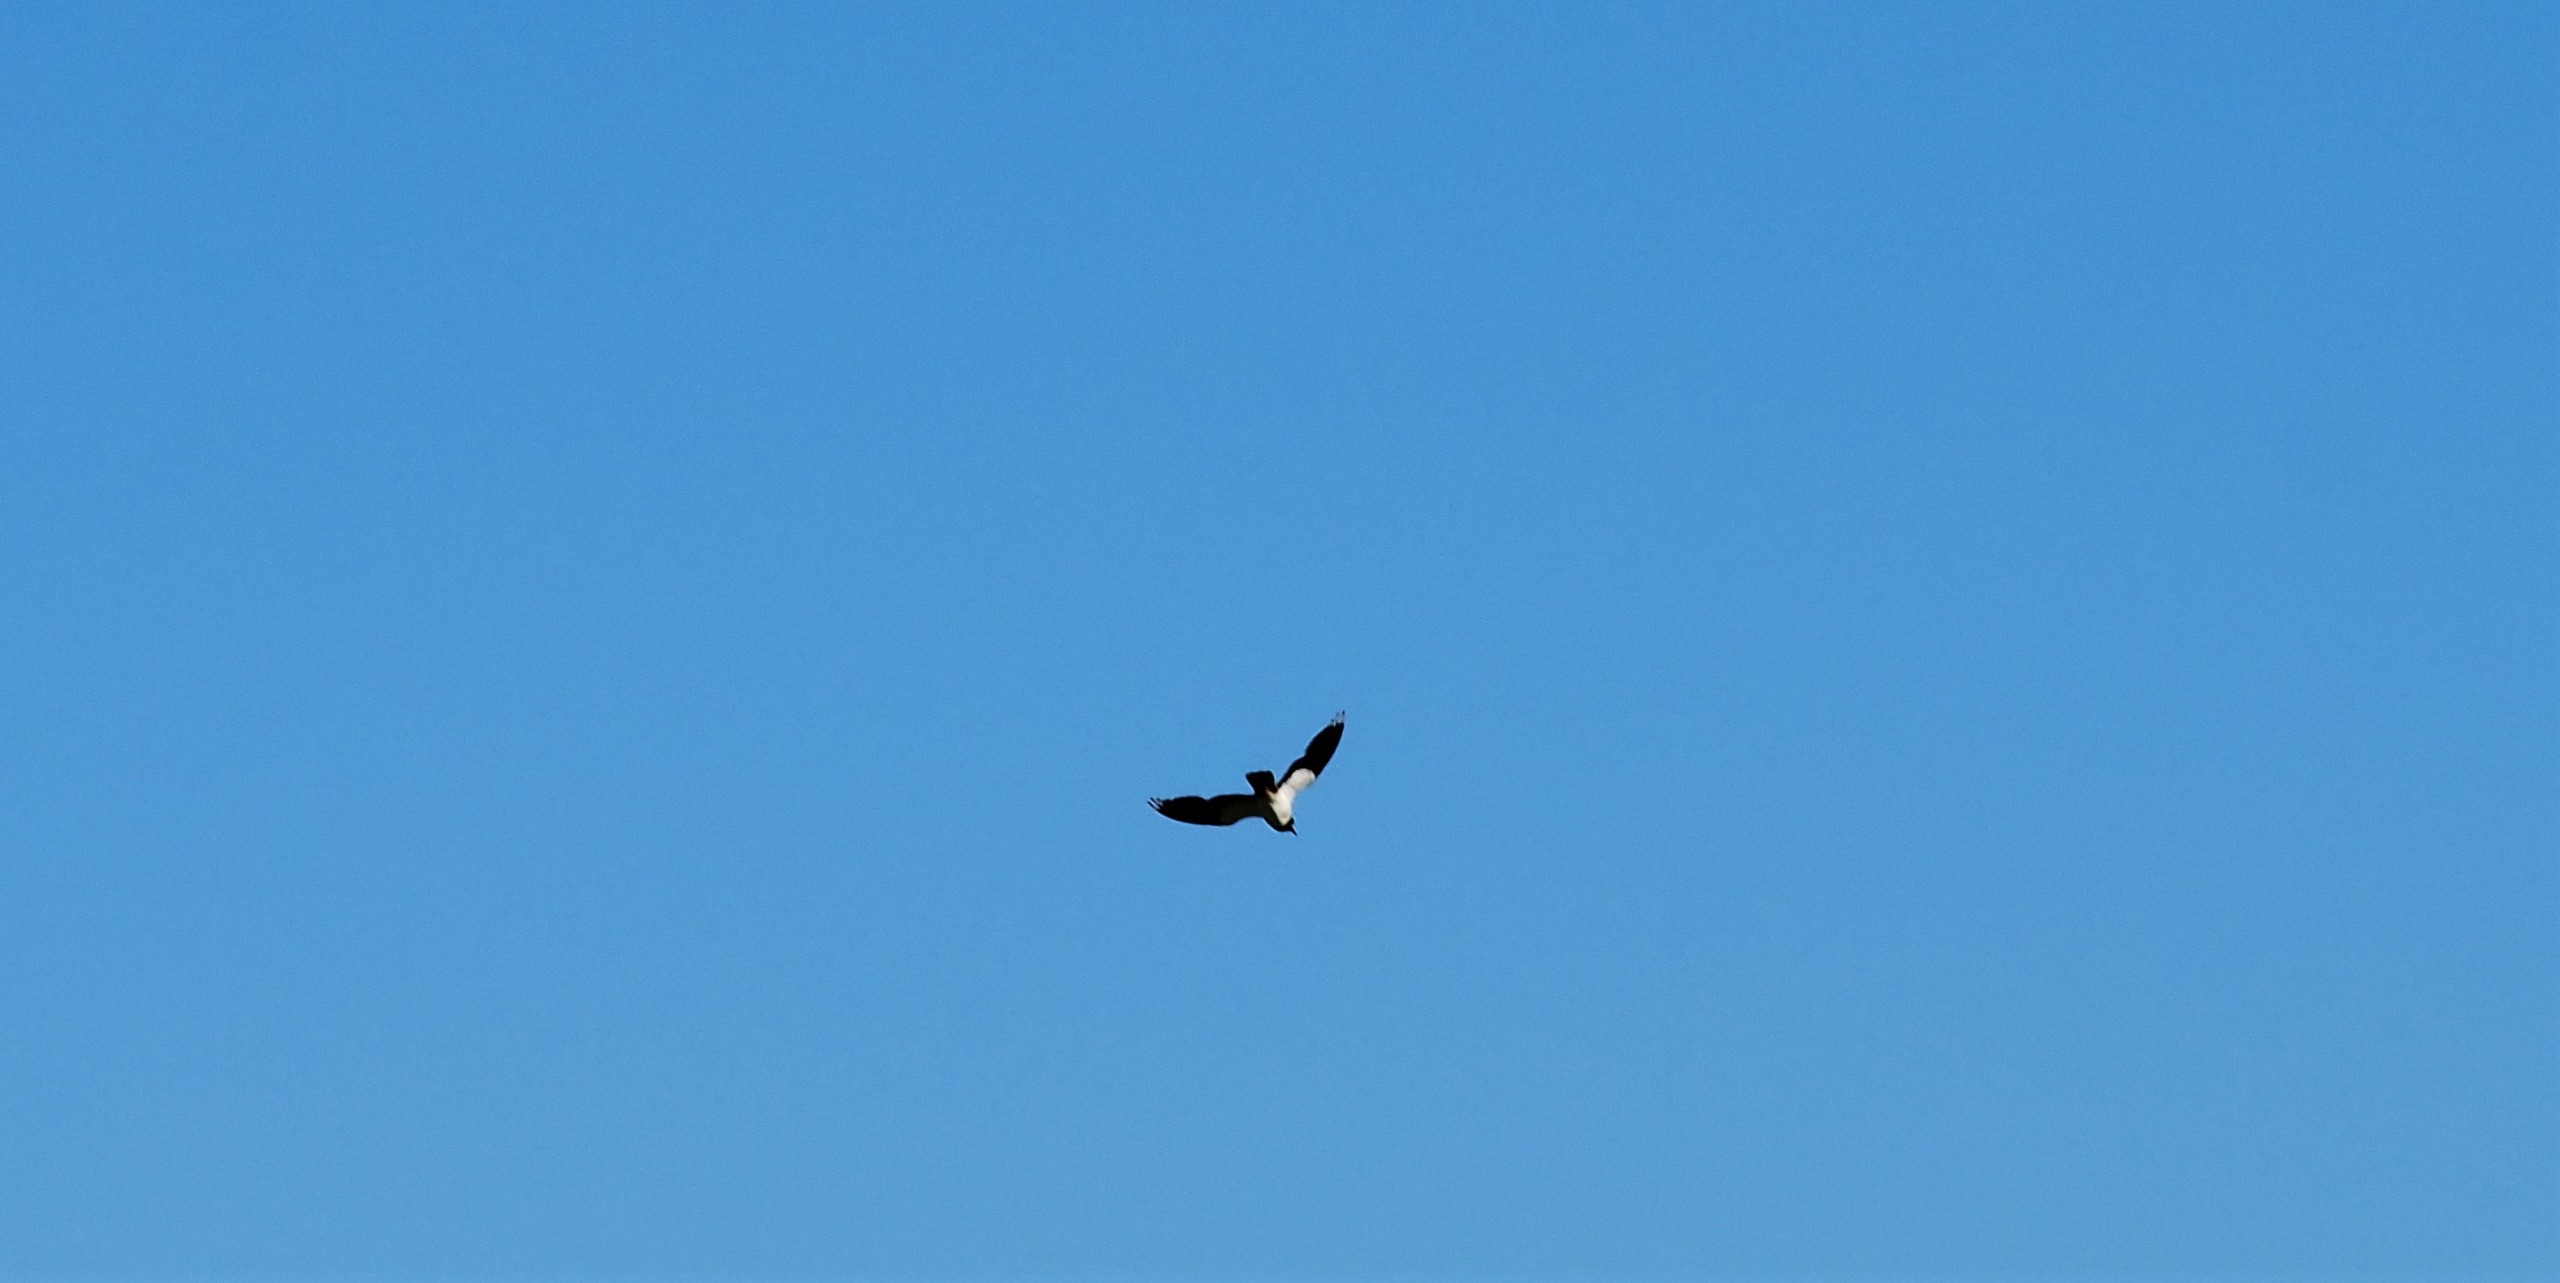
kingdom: Animalia
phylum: Chordata
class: Aves
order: Charadriiformes
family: Charadriidae
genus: Vanellus
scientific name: Vanellus vanellus
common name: Vibe
